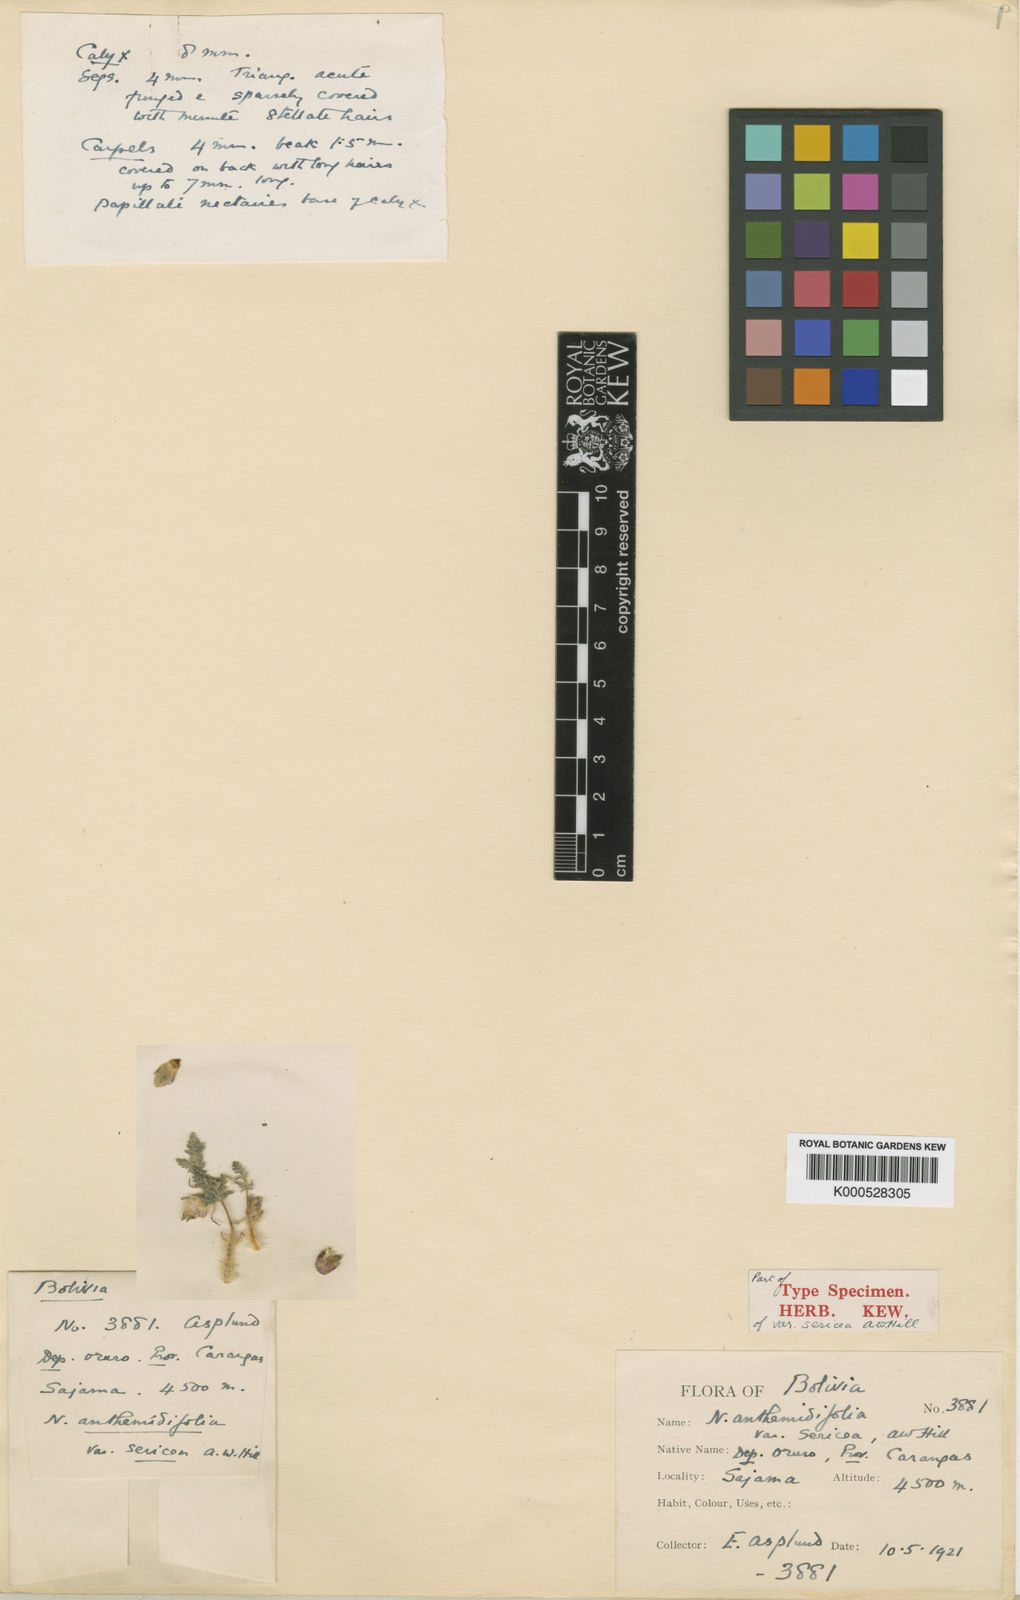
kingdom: Plantae
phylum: Tracheophyta
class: Magnoliopsida
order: Malvales
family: Malvaceae
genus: Nototriche
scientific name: Nototriche
